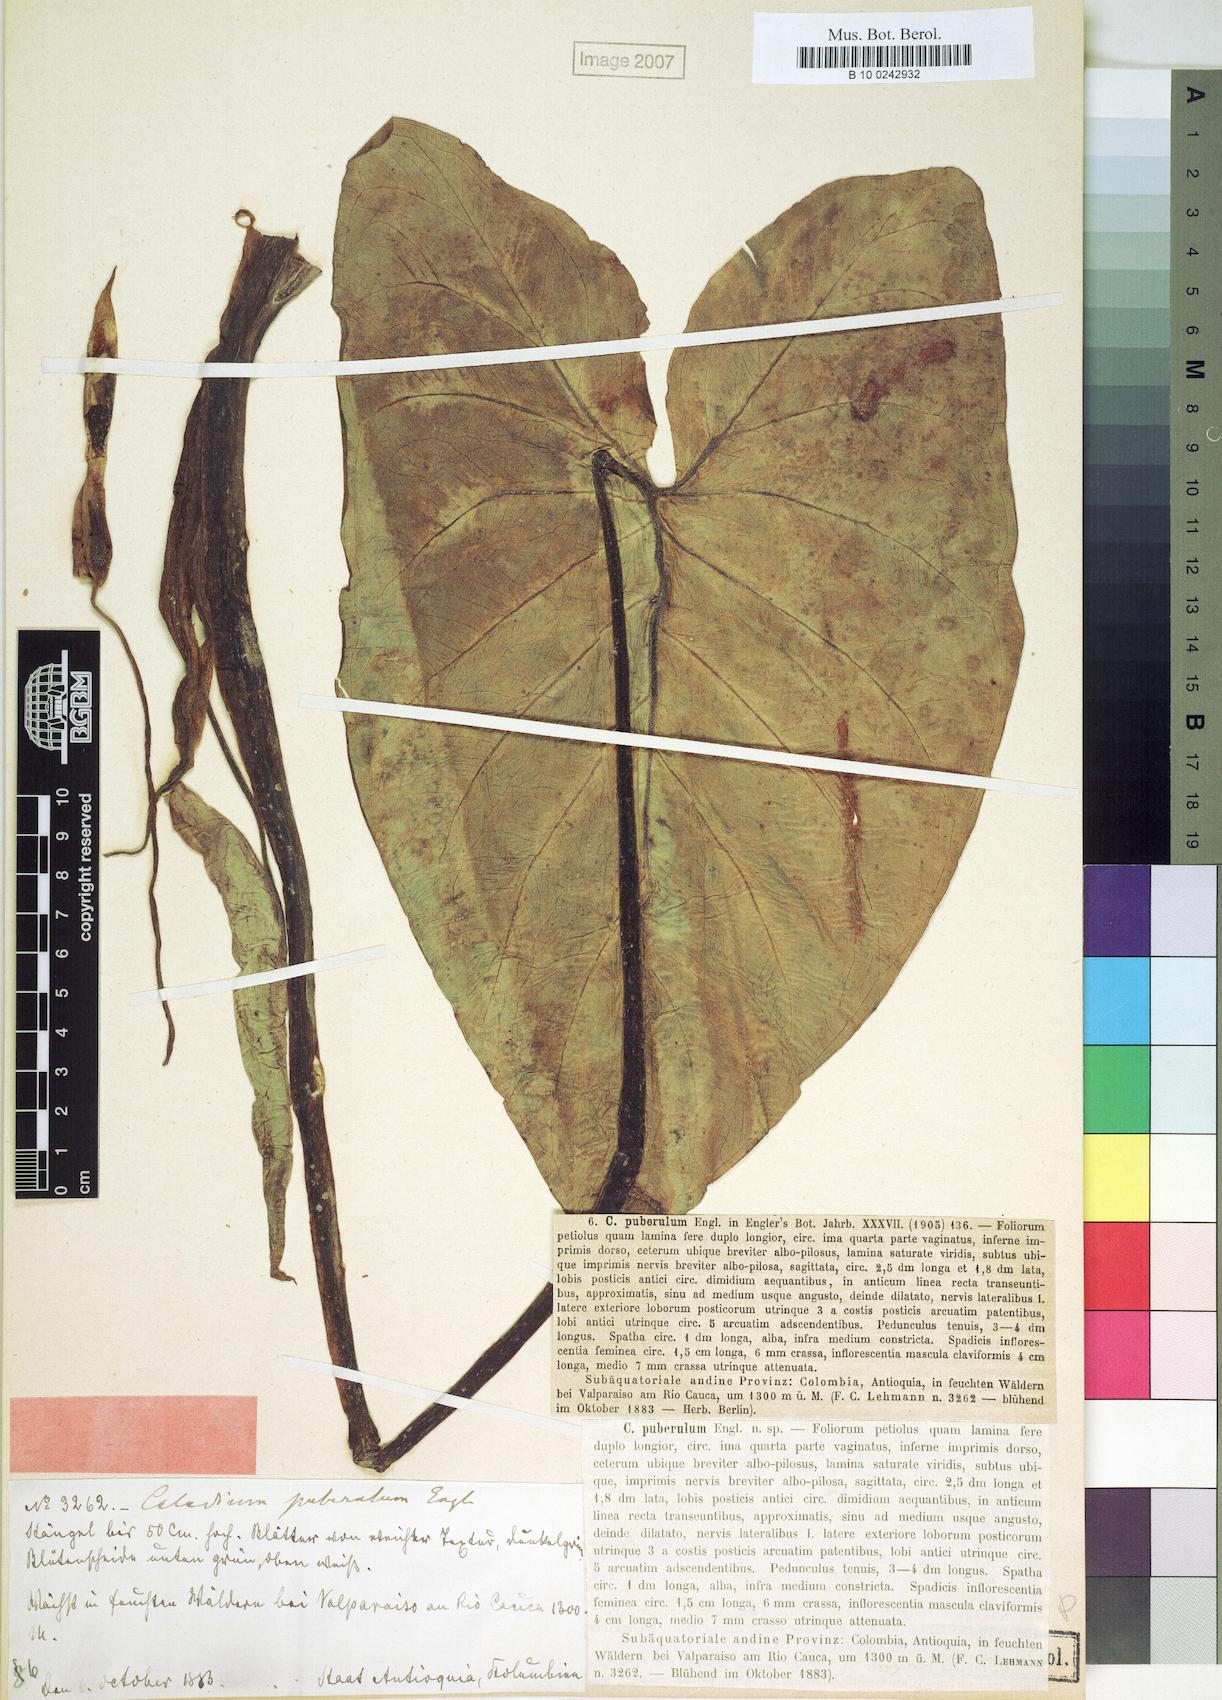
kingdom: Plantae
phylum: Tracheophyta
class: Liliopsida
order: Alismatales
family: Araceae
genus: Xanthosoma
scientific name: Xanthosoma mexicanum
